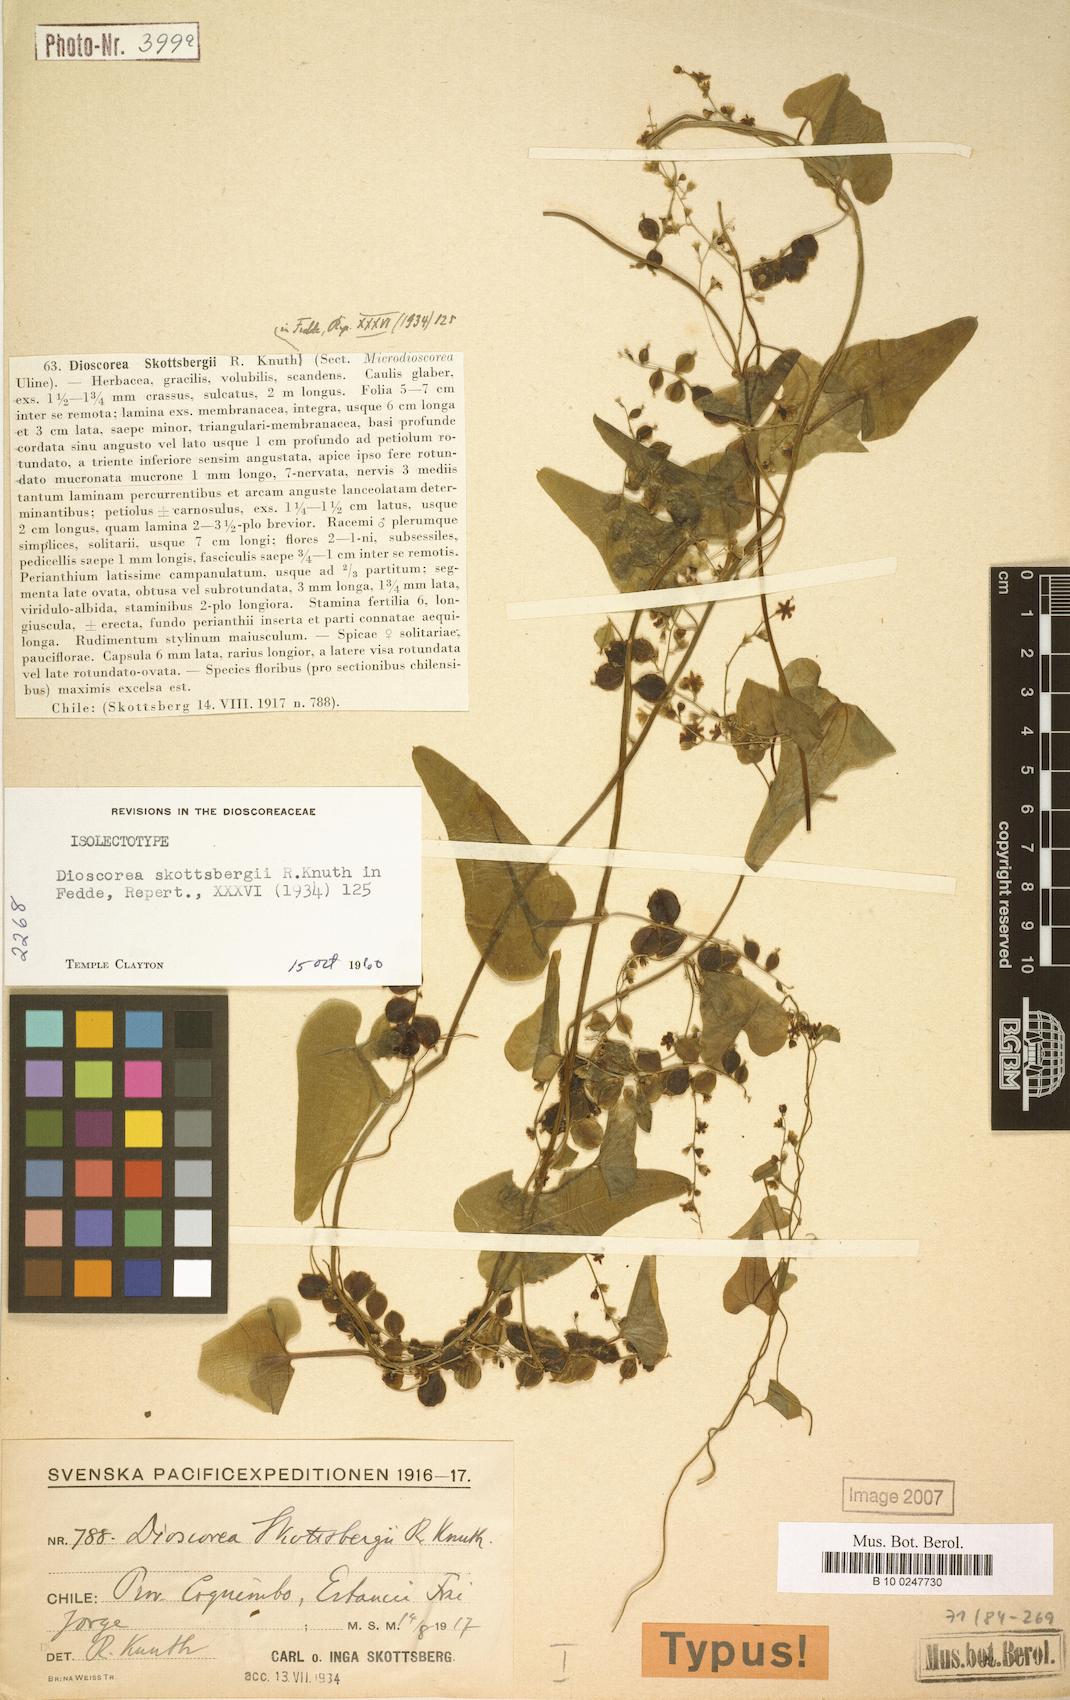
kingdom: Plantae
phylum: Tracheophyta
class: Liliopsida
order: Dioscoreales
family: Dioscoreaceae
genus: Dioscorea
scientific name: Dioscorea skottsbergii
